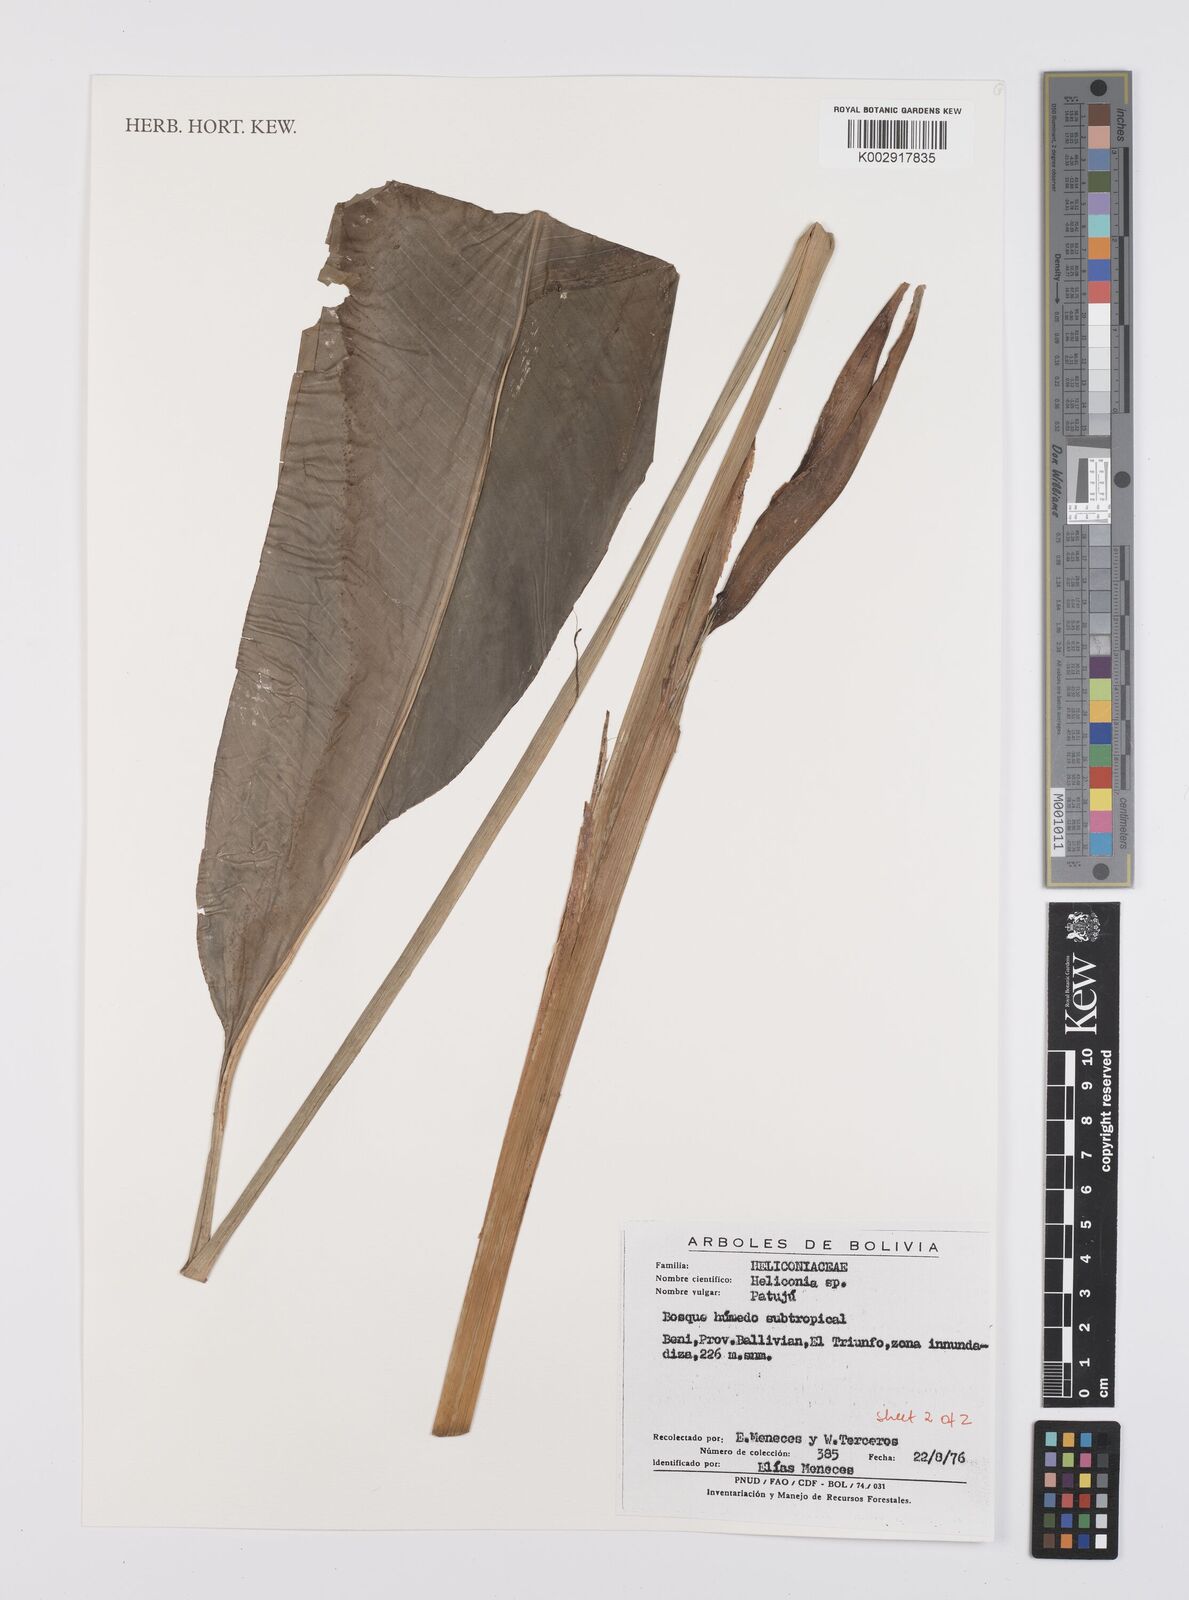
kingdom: Plantae
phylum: Tracheophyta
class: Liliopsida
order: Zingiberales
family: Heliconiaceae
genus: Heliconia
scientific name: Heliconia
